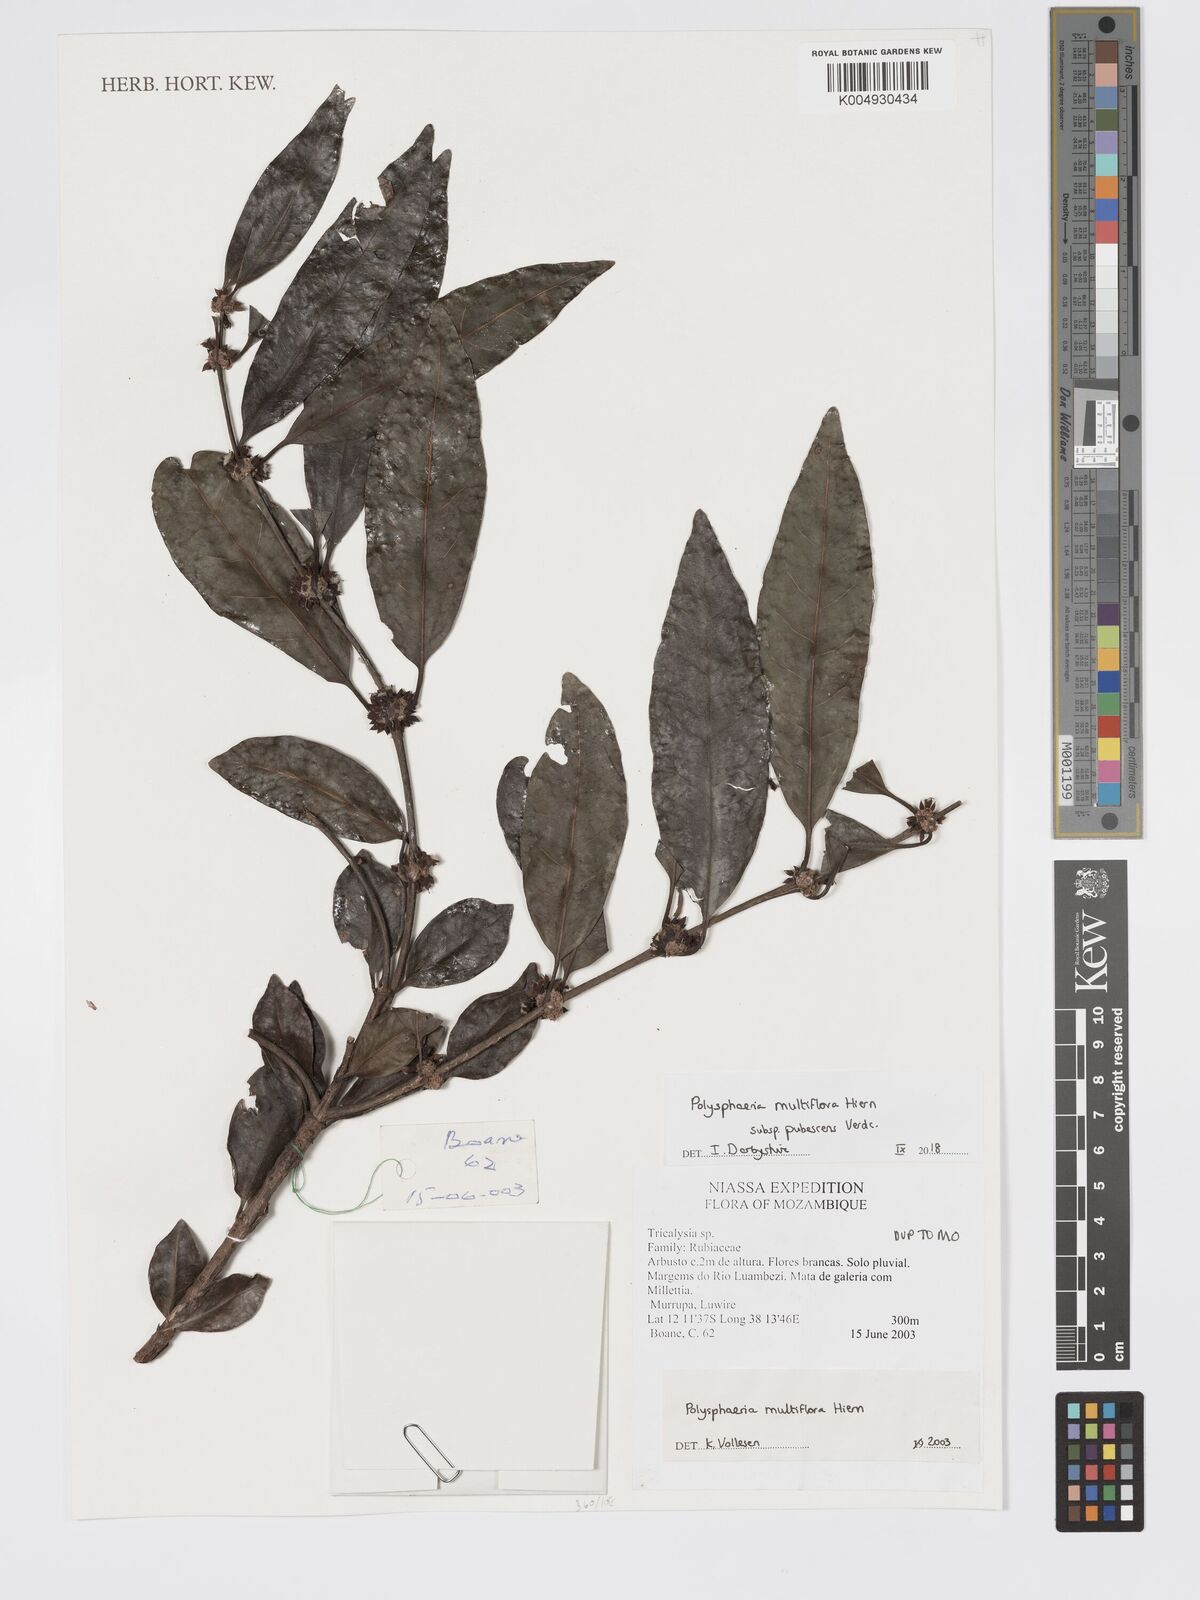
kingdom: Plantae
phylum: Tracheophyta
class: Magnoliopsida
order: Gentianales
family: Rubiaceae
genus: Polysphaeria
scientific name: Polysphaeria multiflora
